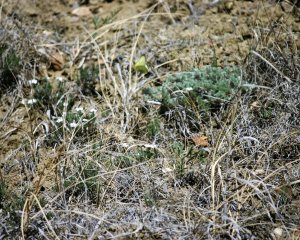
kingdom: Animalia
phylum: Arthropoda
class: Insecta
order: Lepidoptera
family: Pieridae
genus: Colias
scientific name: Colias philodice
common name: Clouded Sulphur
